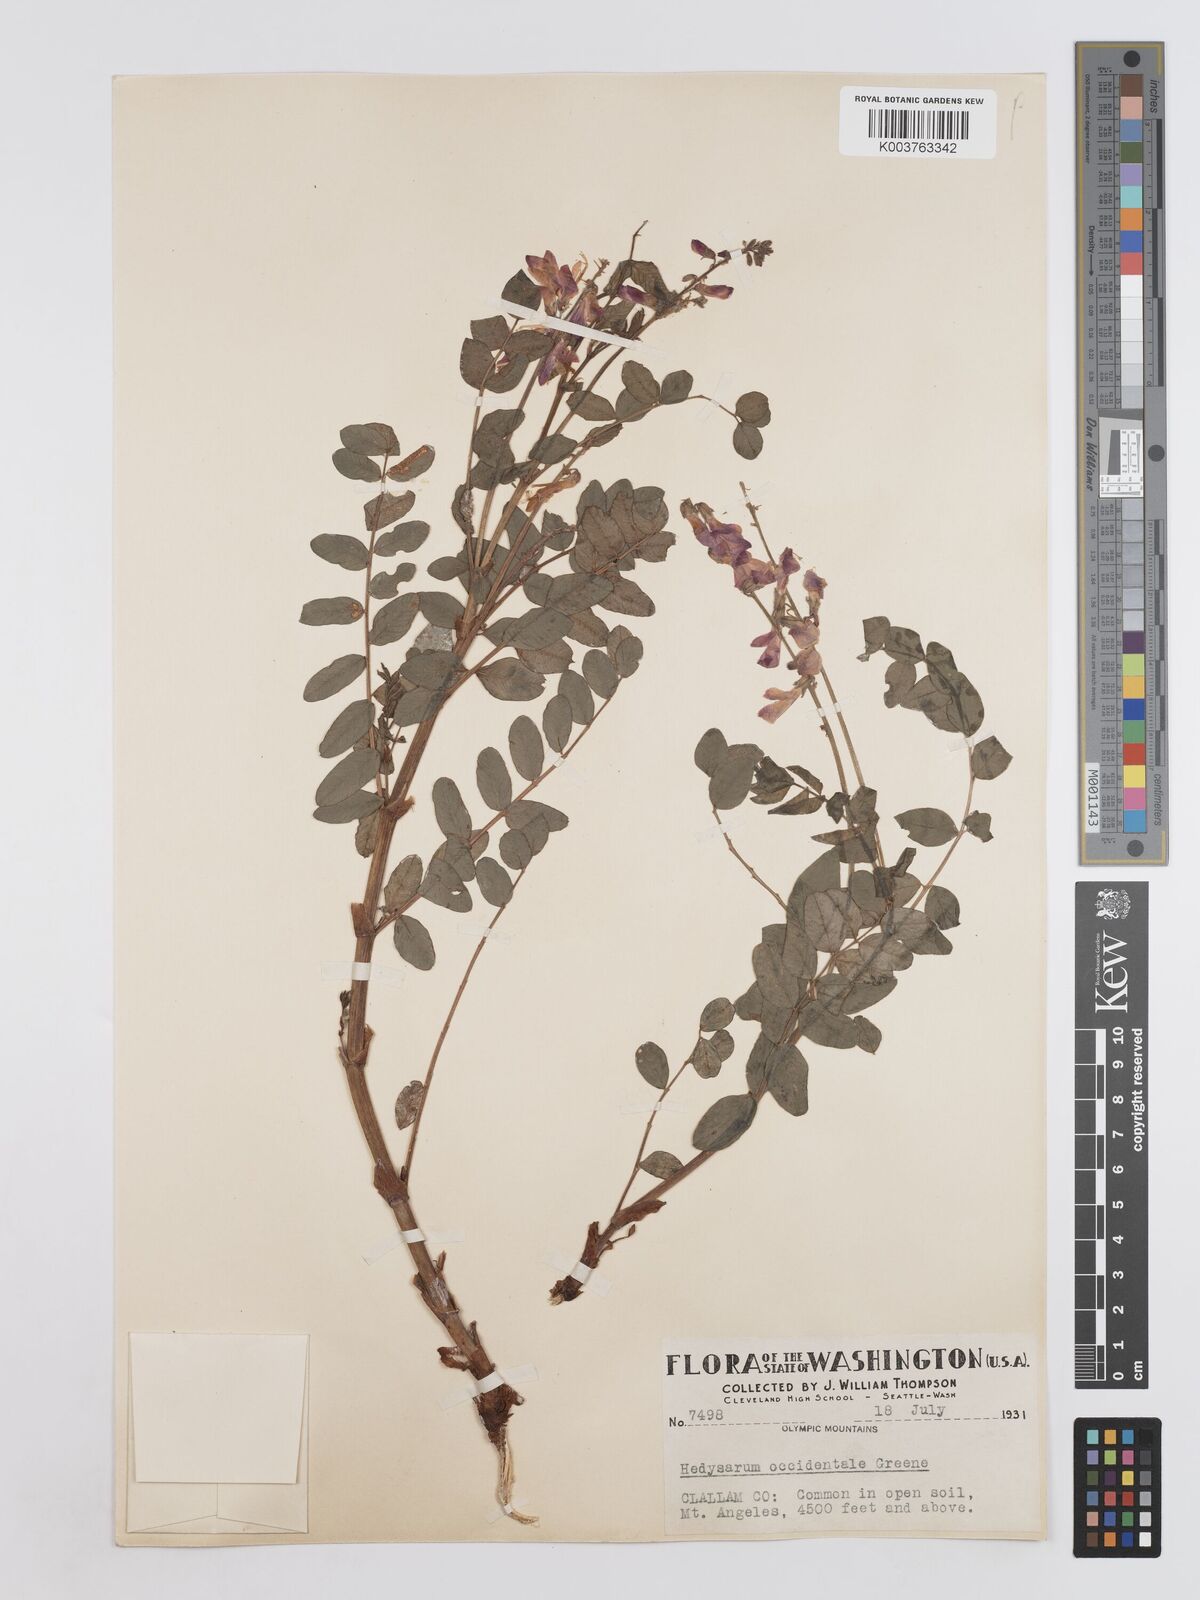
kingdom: Plantae
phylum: Tracheophyta
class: Magnoliopsida
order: Fabales
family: Fabaceae
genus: Hedysarum
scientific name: Hedysarum occidentale
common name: Western hedysarum
